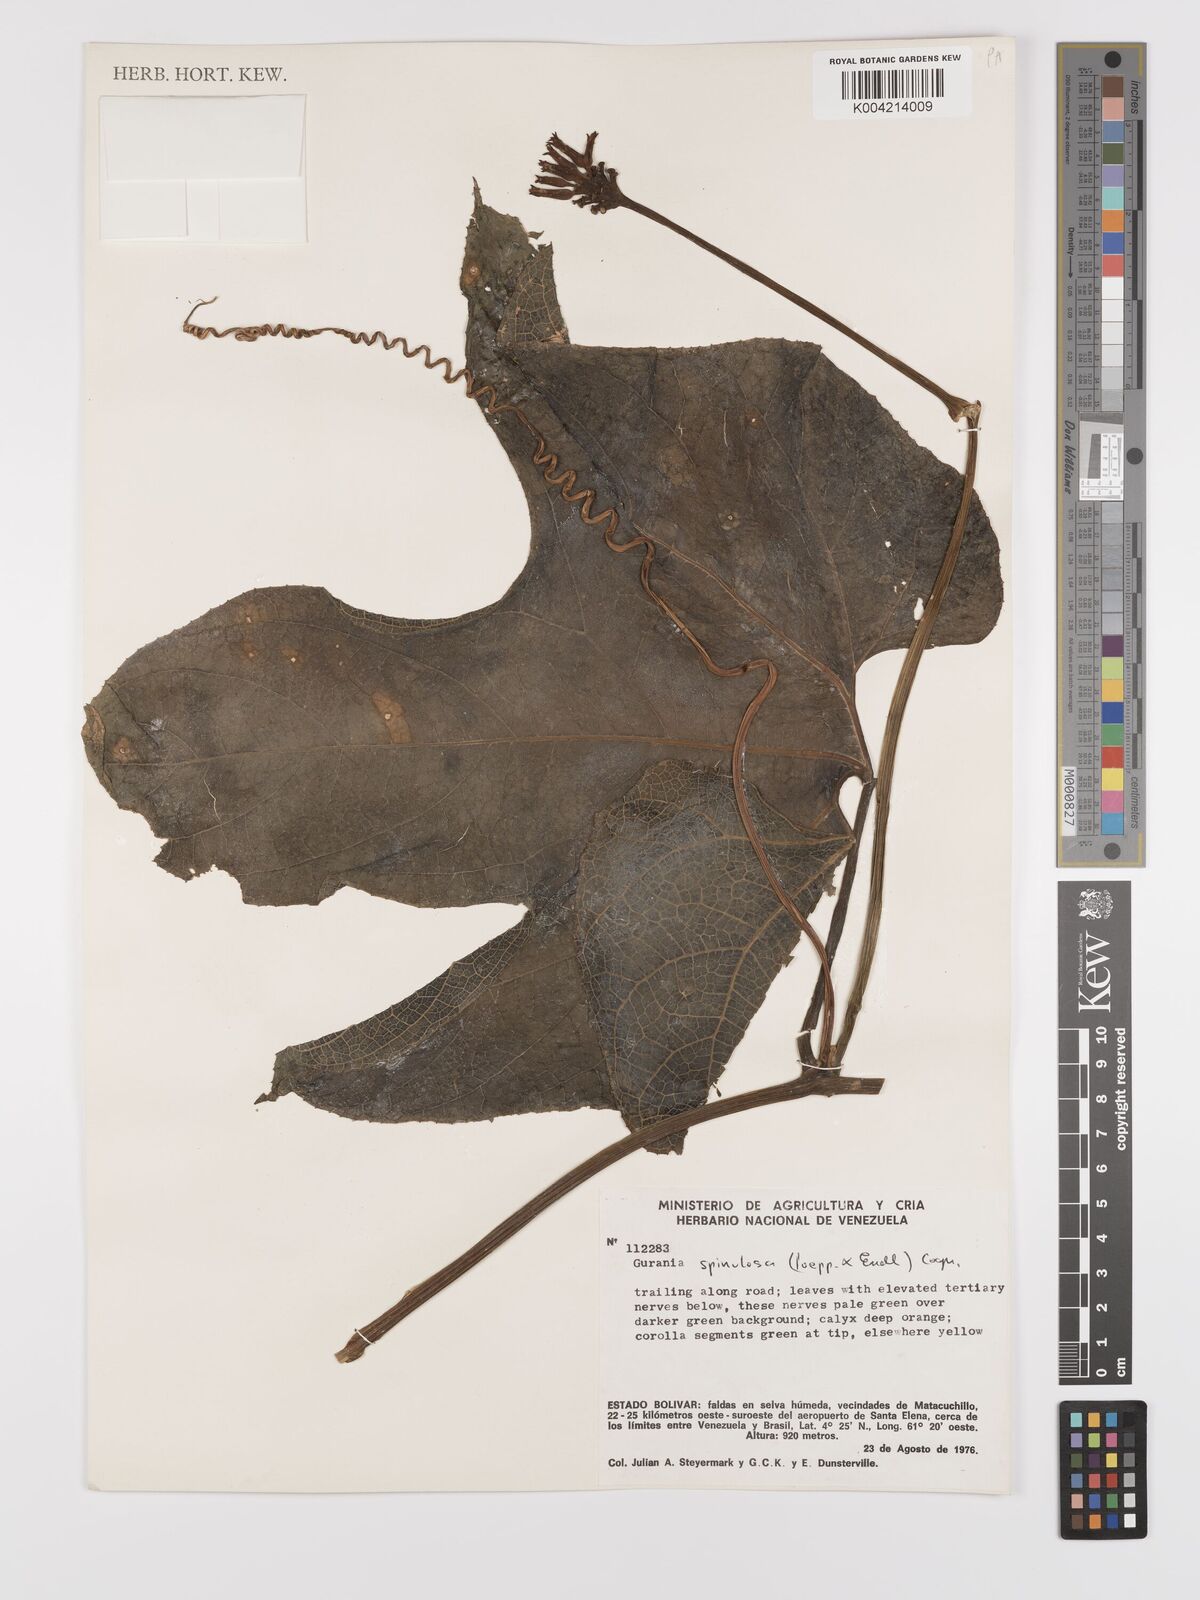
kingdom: Plantae
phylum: Tracheophyta
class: Magnoliopsida
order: Cucurbitales
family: Cucurbitaceae
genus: Gurania
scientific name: Gurania lobata
